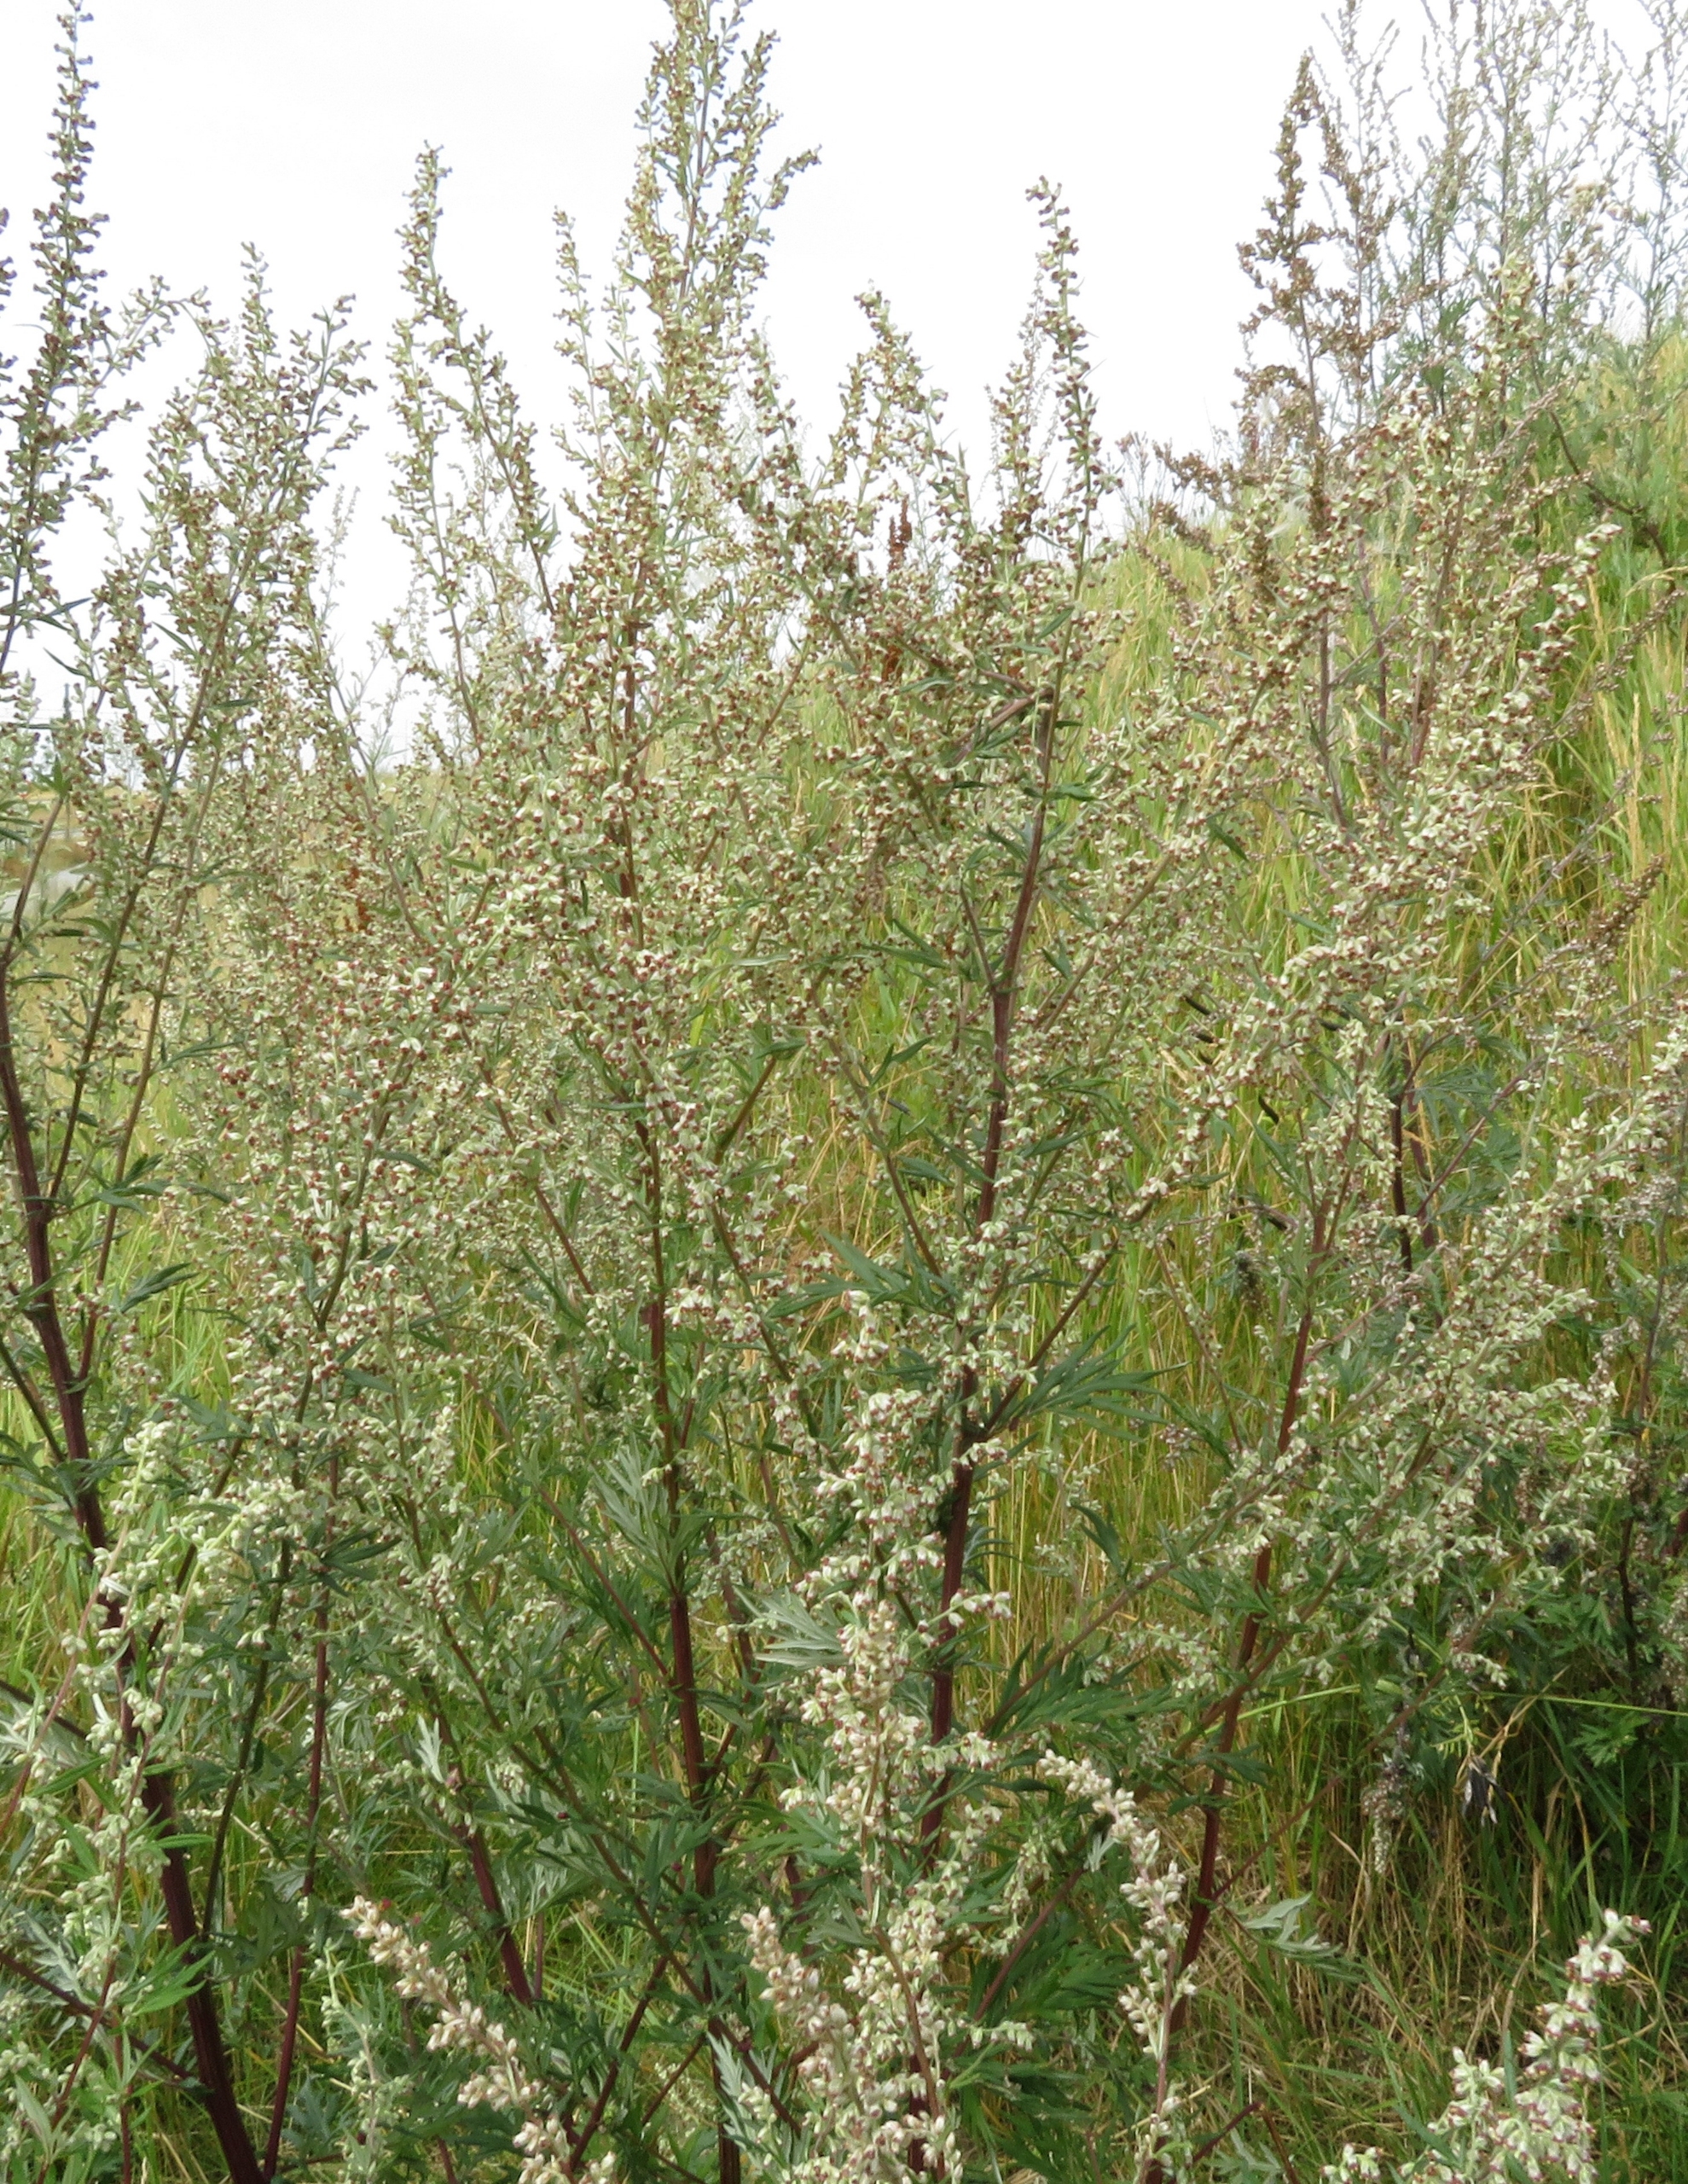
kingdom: Plantae
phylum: Tracheophyta
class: Magnoliopsida
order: Asterales
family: Asteraceae
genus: Artemisia
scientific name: Artemisia vulgaris
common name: Grå-bynke
